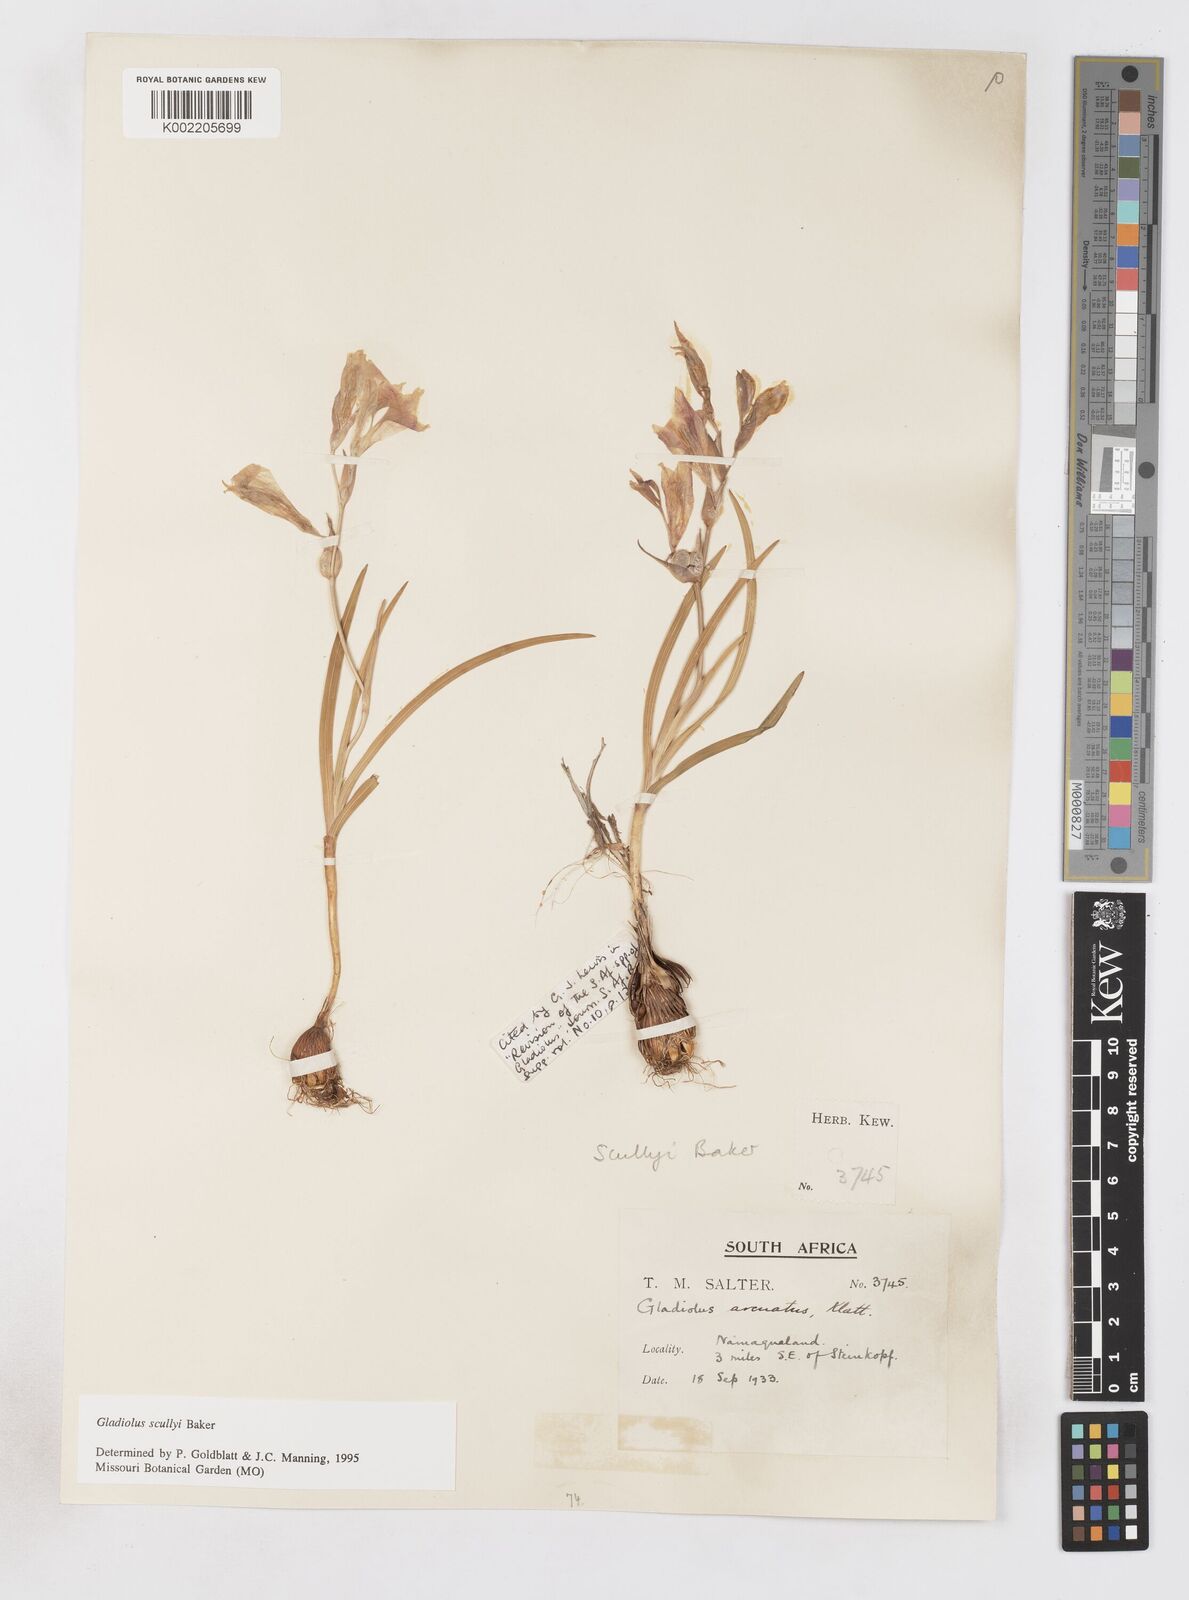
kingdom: Plantae
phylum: Tracheophyta
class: Liliopsida
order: Asparagales
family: Iridaceae
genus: Gladiolus
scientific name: Gladiolus scullyi
